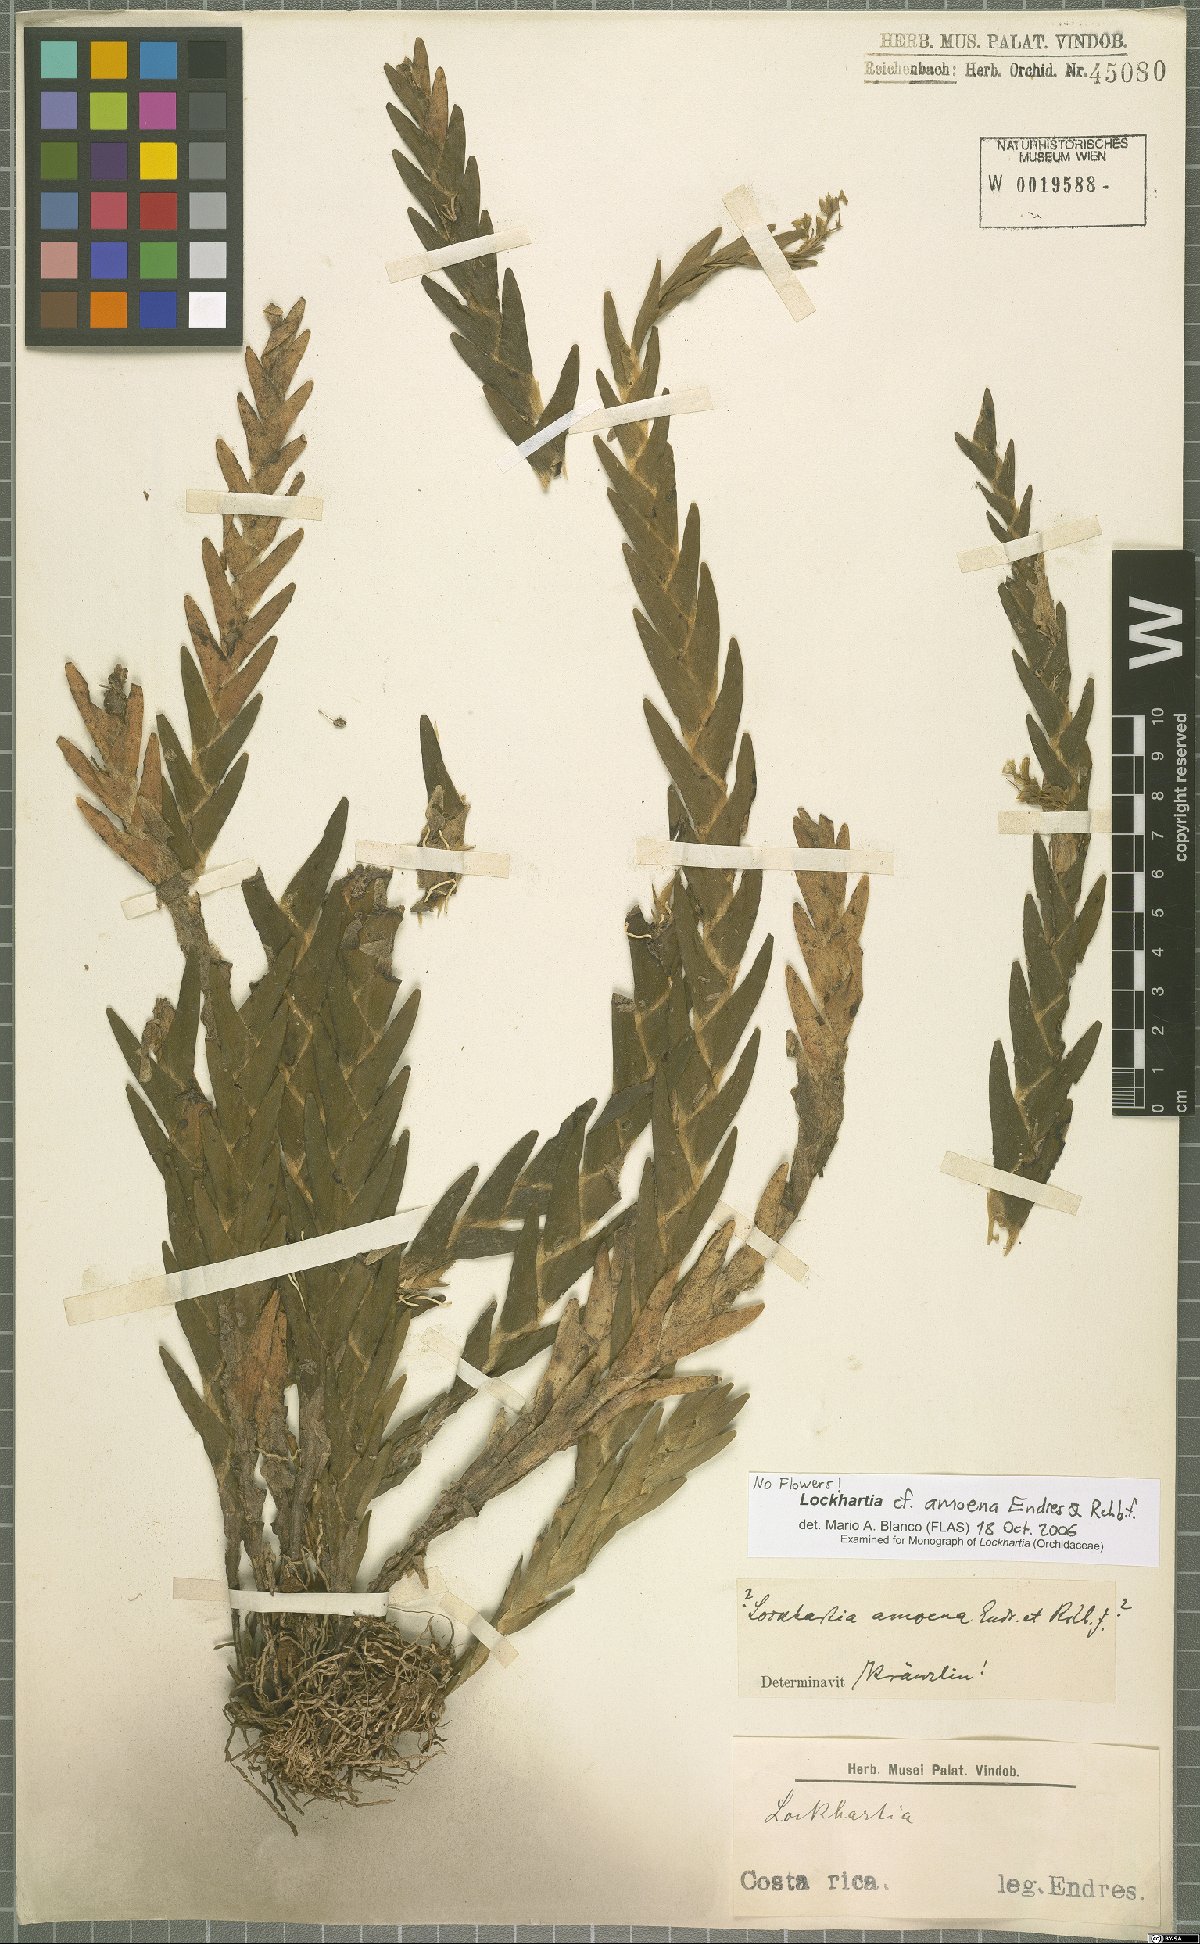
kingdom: Plantae
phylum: Tracheophyta
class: Liliopsida
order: Asparagales
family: Orchidaceae
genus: Lockhartia
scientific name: Lockhartia amoena
